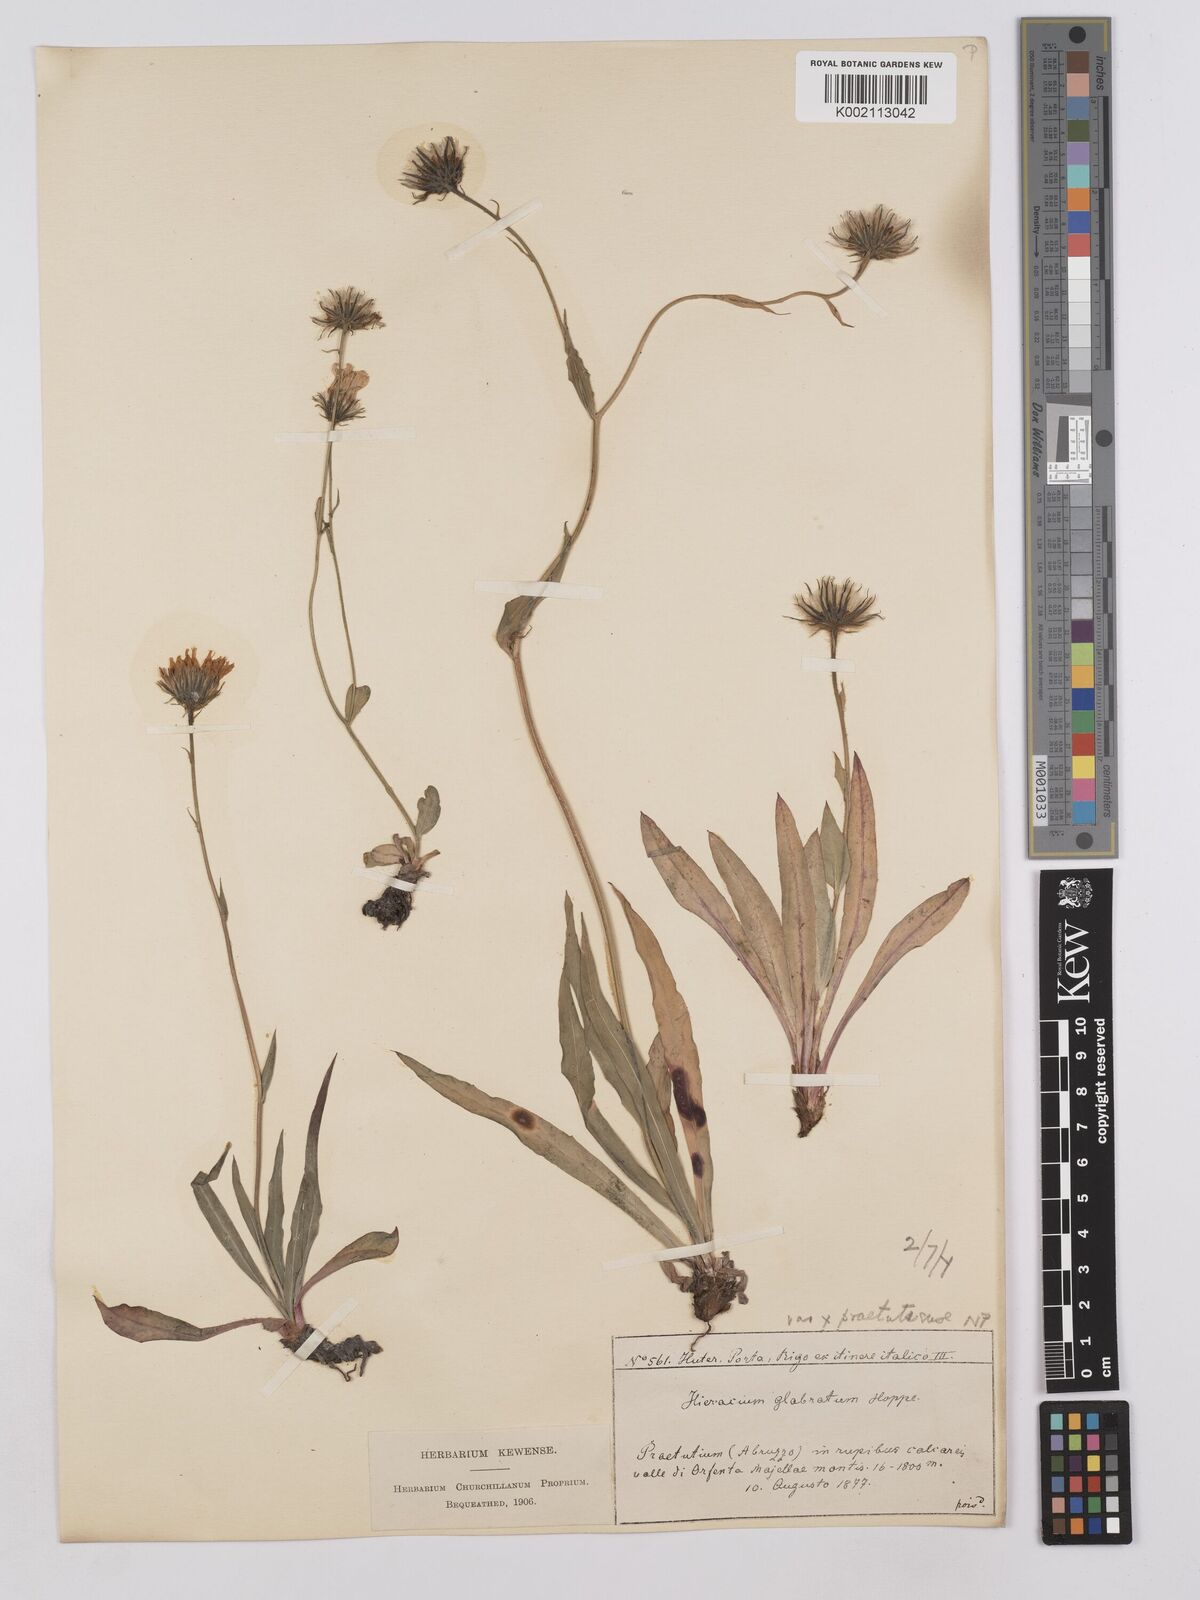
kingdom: Plantae
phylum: Tracheophyta
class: Magnoliopsida
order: Asterales
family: Asteraceae
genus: Hieracium
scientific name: Hieracium bupleuroides
